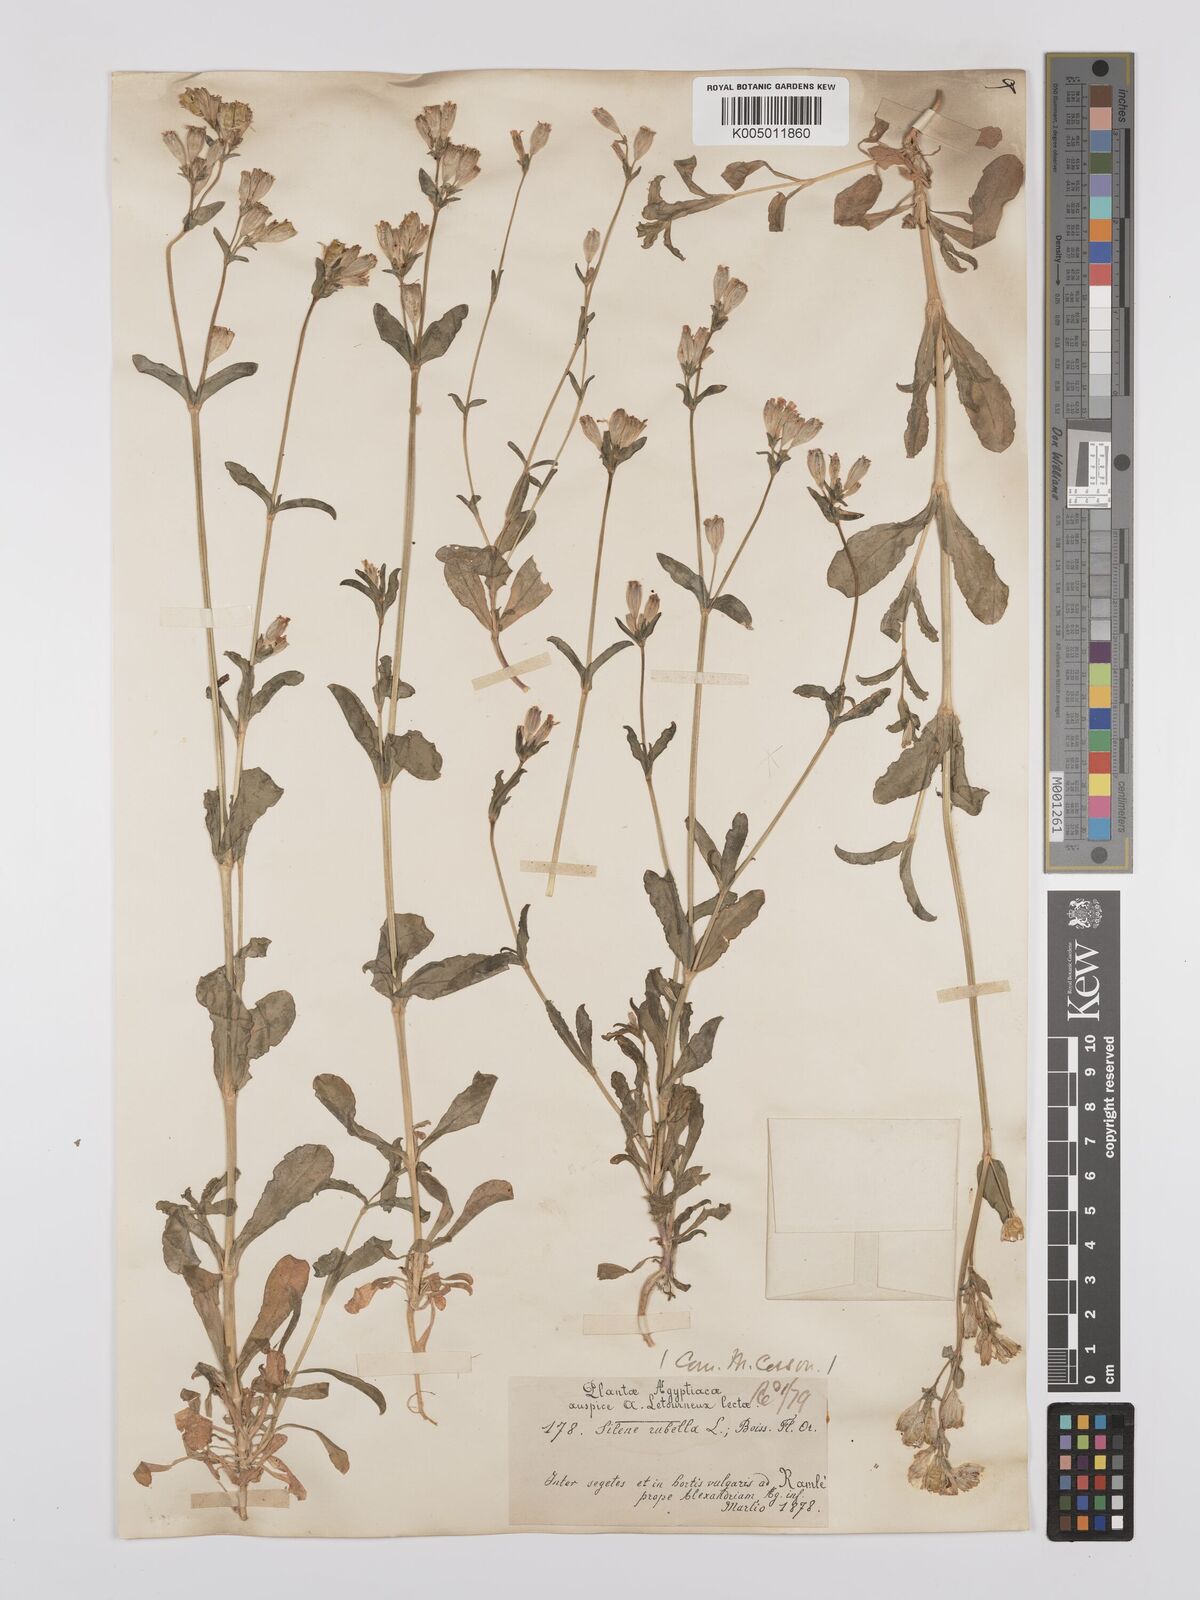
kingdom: Plantae
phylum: Tracheophyta
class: Magnoliopsida
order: Caryophyllales
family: Caryophyllaceae
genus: Silene
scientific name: Silene rubella
